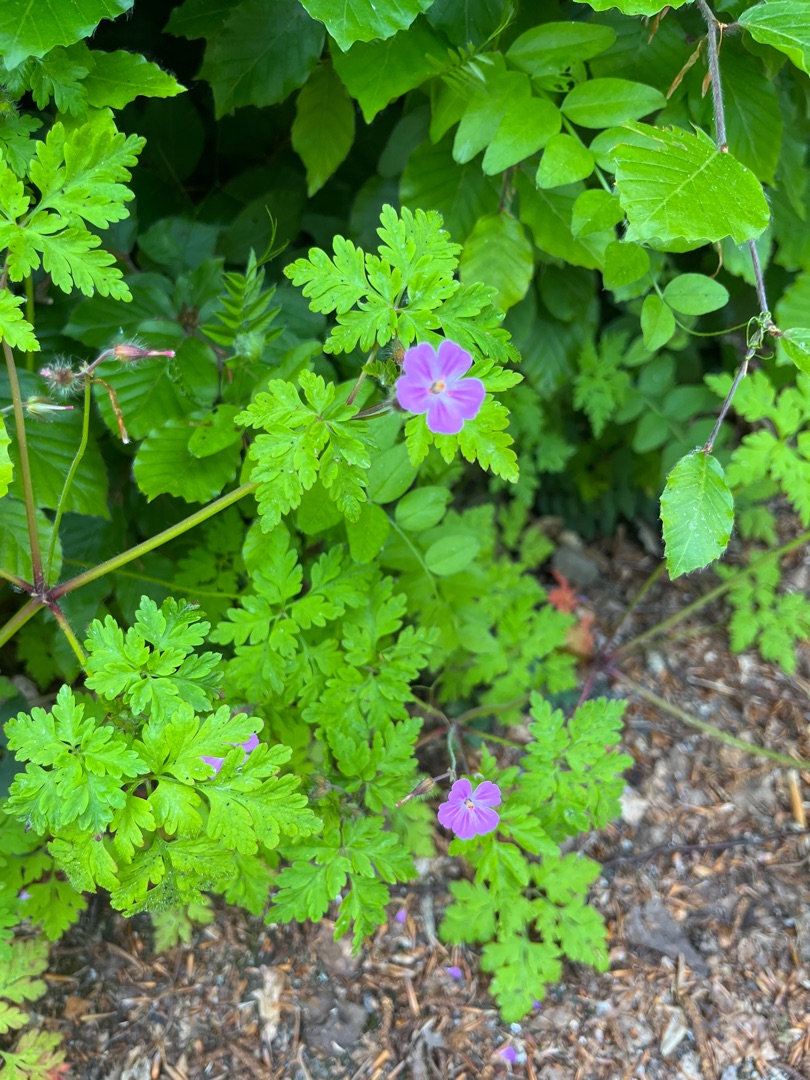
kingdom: Plantae
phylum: Tracheophyta
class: Magnoliopsida
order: Geraniales
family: Geraniaceae
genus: Geranium
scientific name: Geranium robertianum
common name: Stinkende storkenæb
